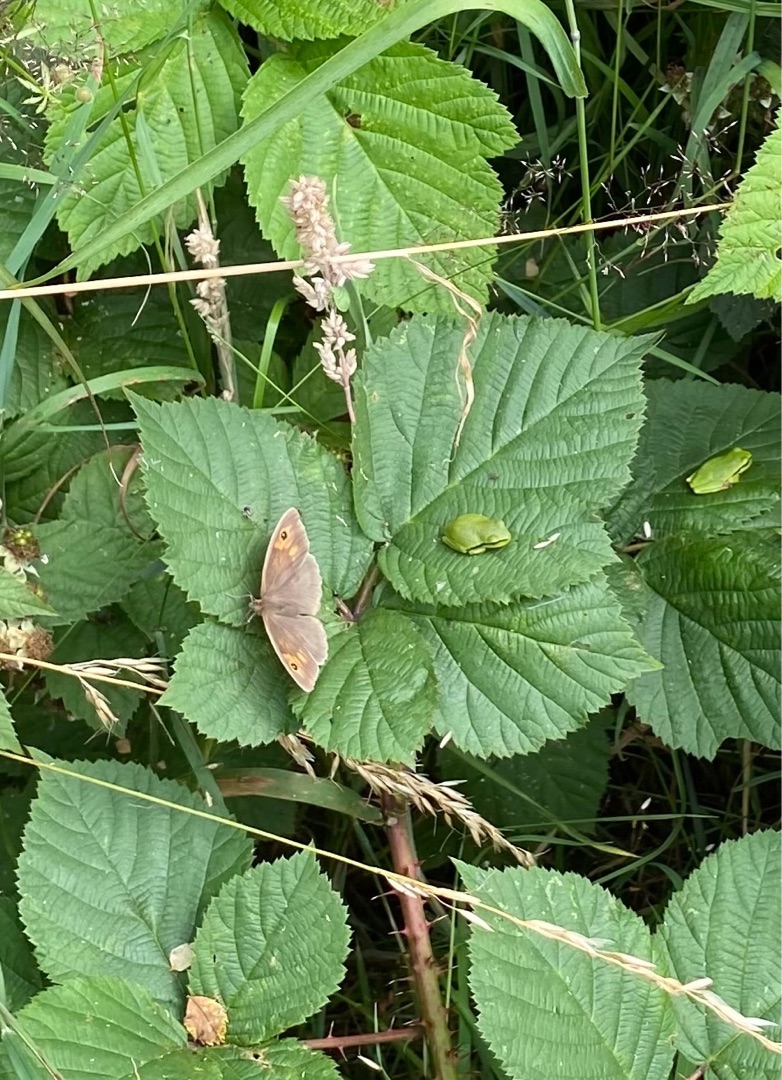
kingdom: Animalia
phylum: Arthropoda
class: Insecta
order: Lepidoptera
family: Nymphalidae
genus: Maniola
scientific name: Maniola jurtina
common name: Græsrandøje
